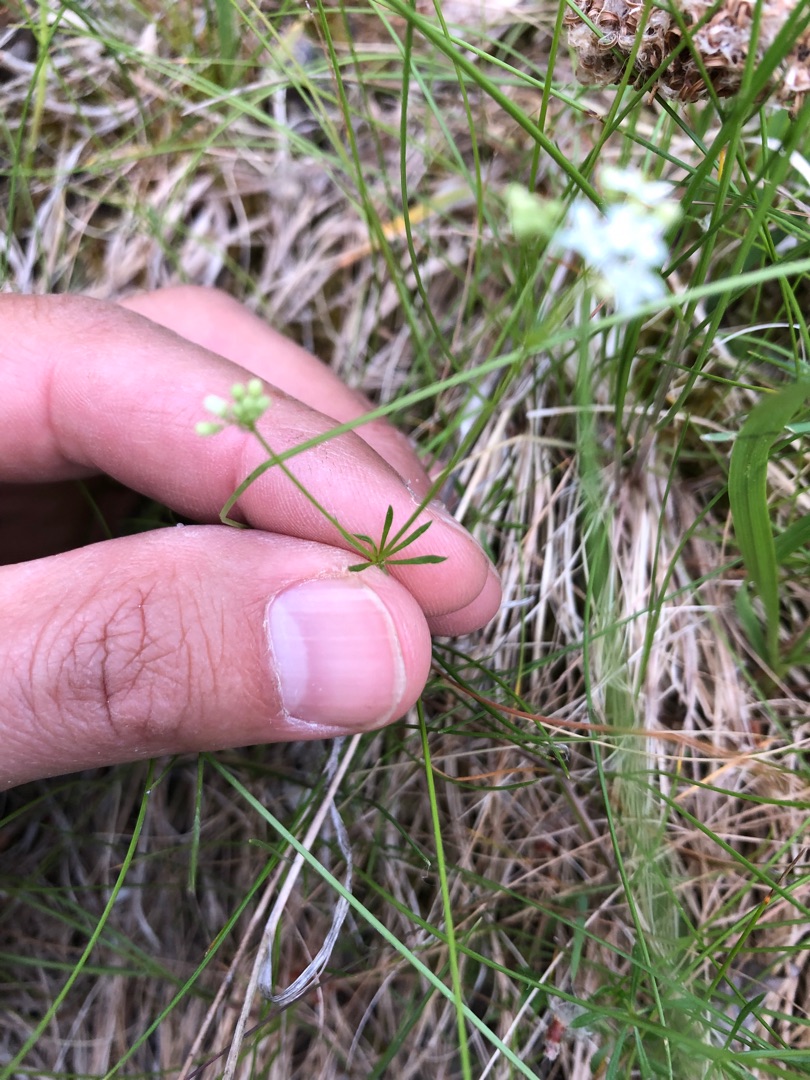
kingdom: Plantae
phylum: Tracheophyta
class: Magnoliopsida
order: Gentianales
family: Rubiaceae
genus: Galium
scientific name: Galium sterneri
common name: Liden snerre
